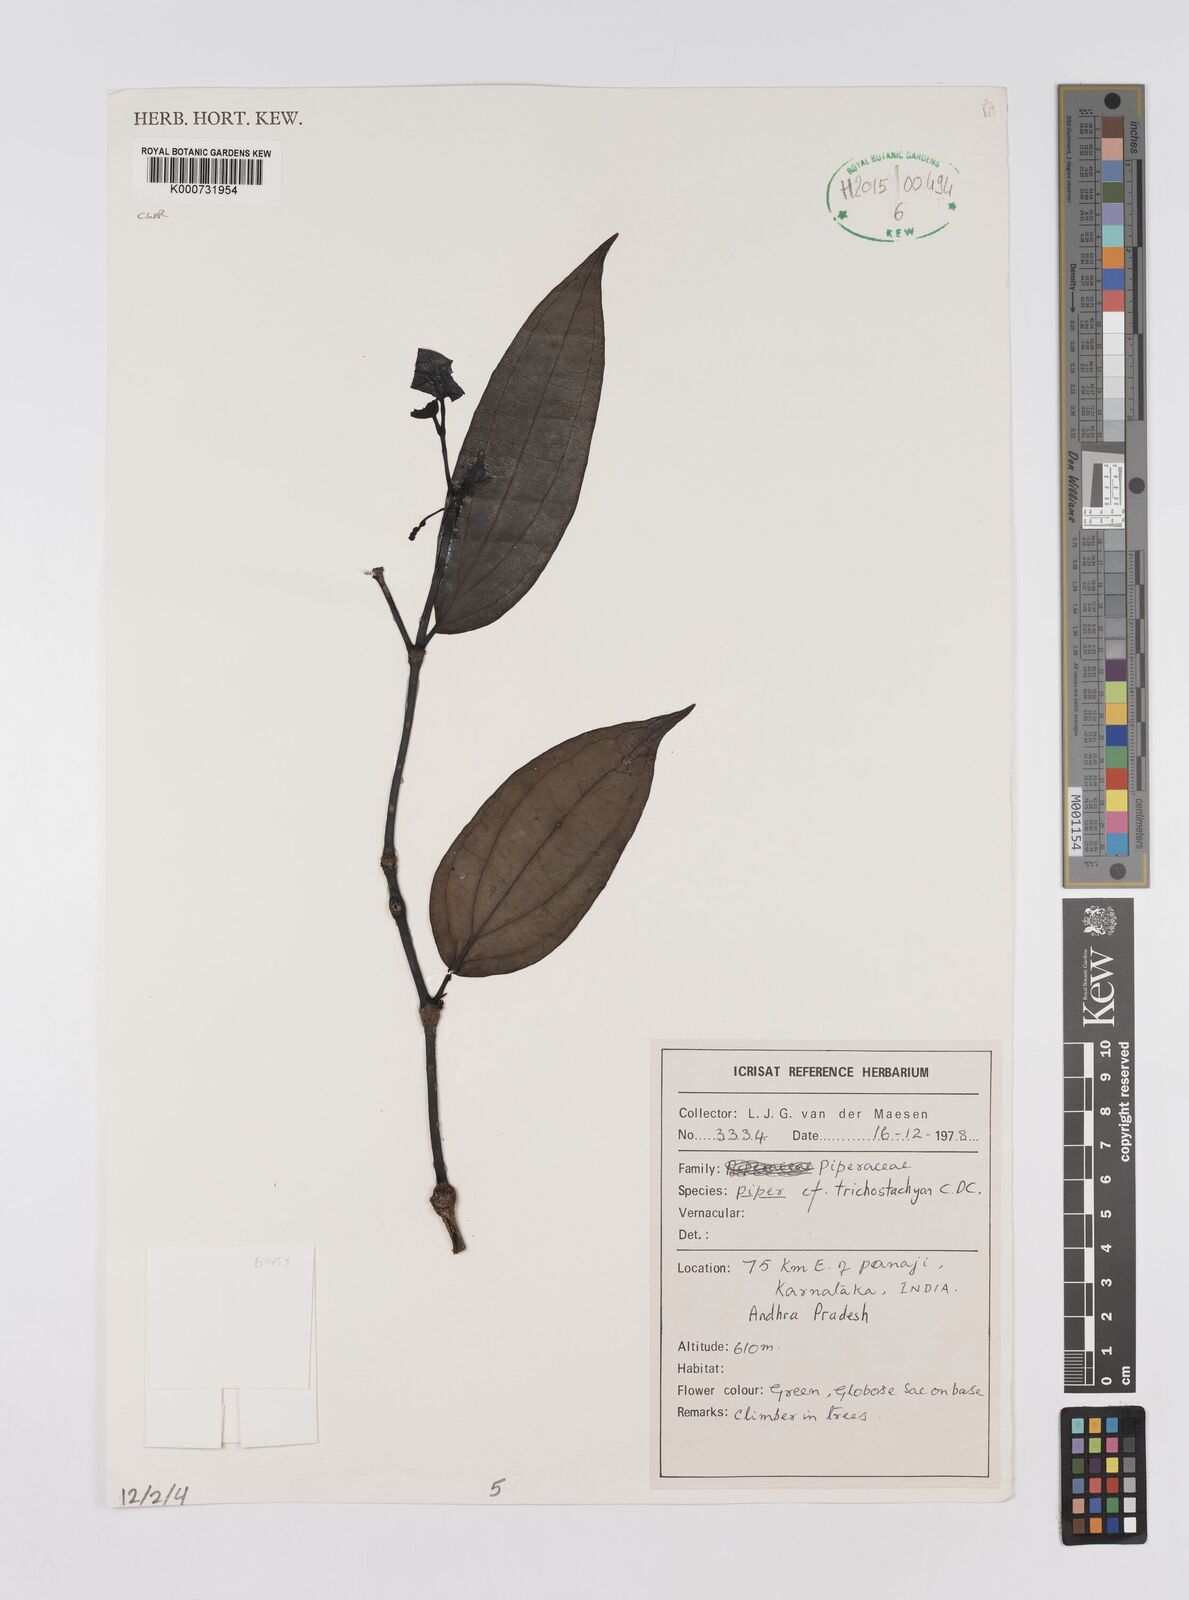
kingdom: Plantae
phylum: Tracheophyta
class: Magnoliopsida
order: Piperales
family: Piperaceae
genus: Piper
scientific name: Piper
